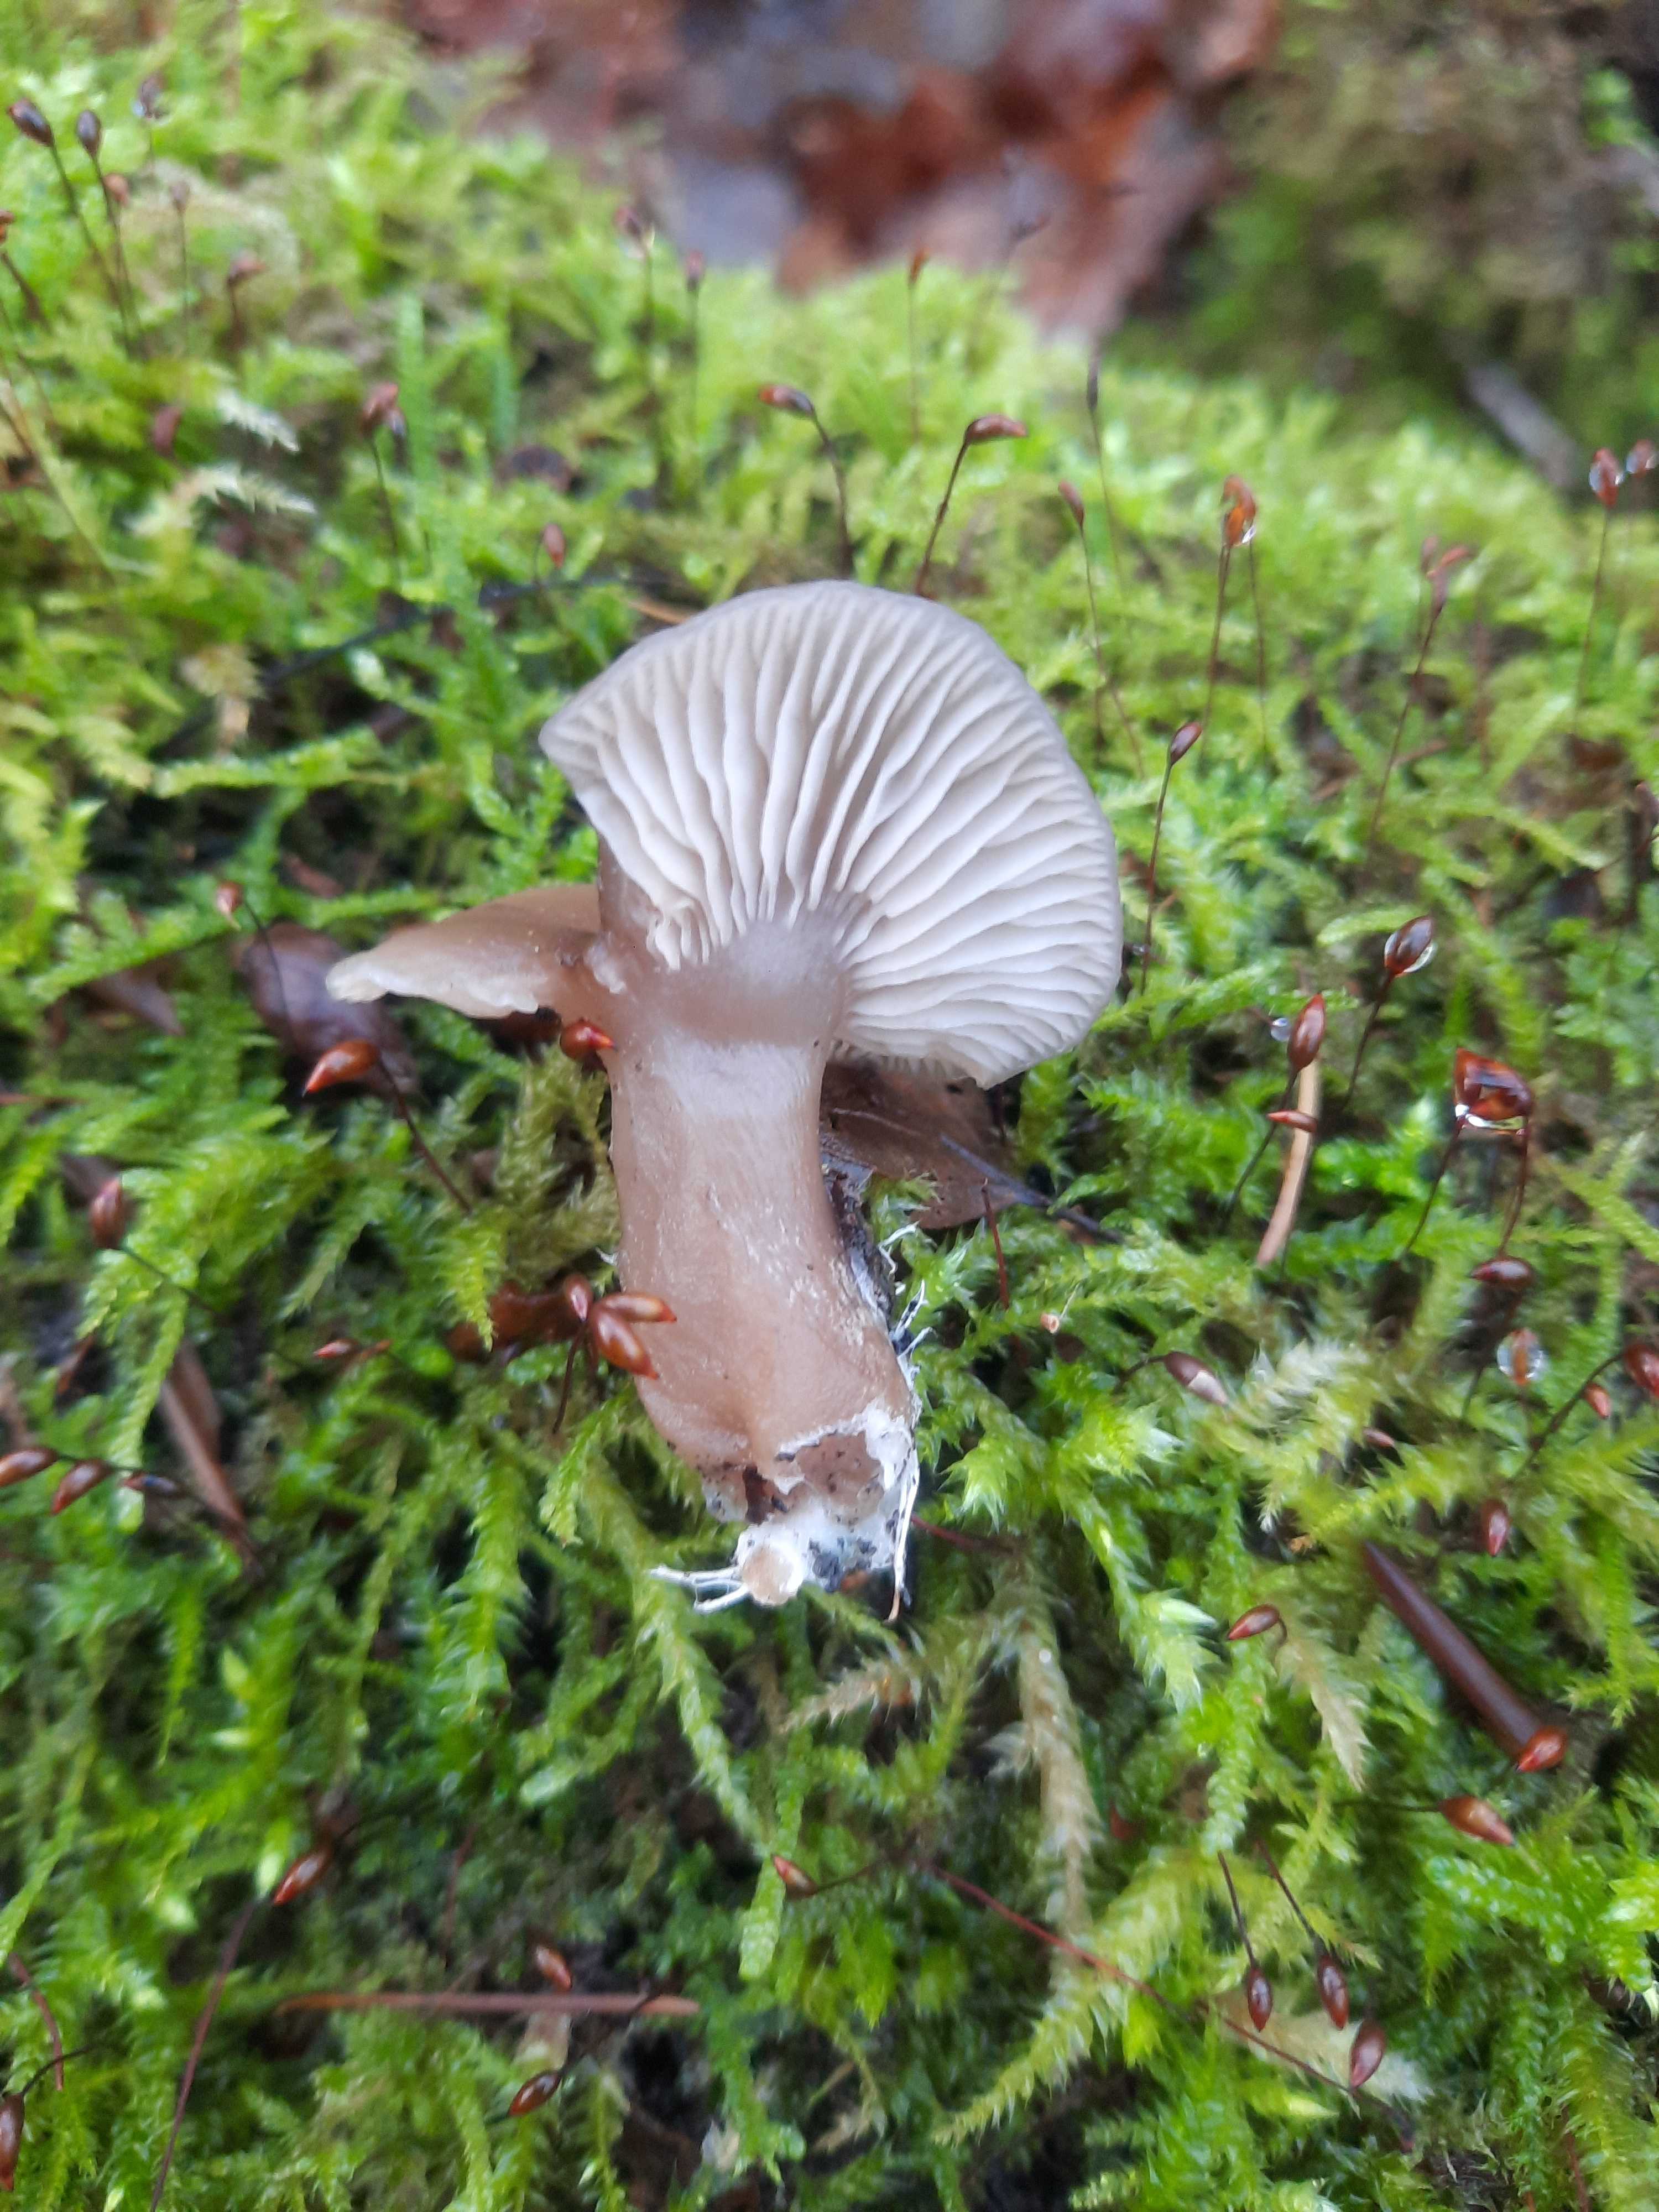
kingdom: Fungi
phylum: Basidiomycota
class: Agaricomycetes
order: Agaricales
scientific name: Agaricales
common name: champignonordenen
